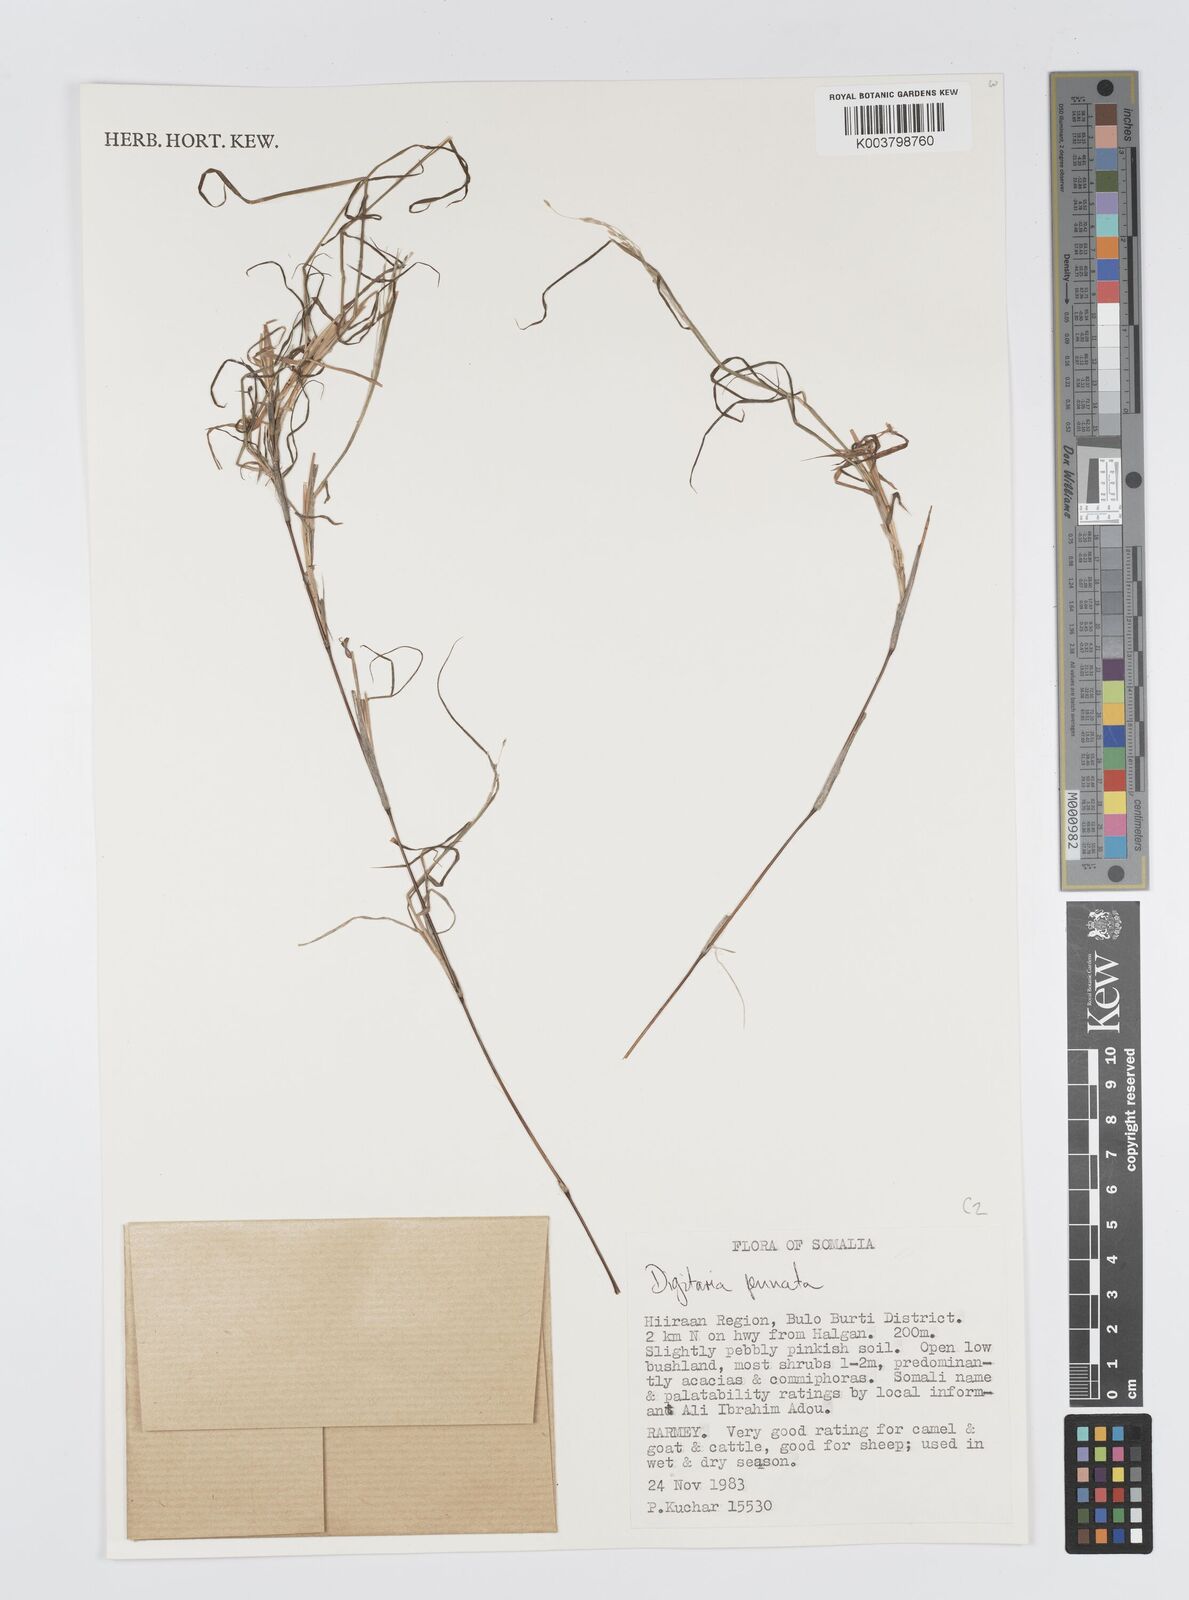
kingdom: Plantae
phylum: Tracheophyta
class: Liliopsida
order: Poales
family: Poaceae
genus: Digitaria
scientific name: Digitaria pennata
